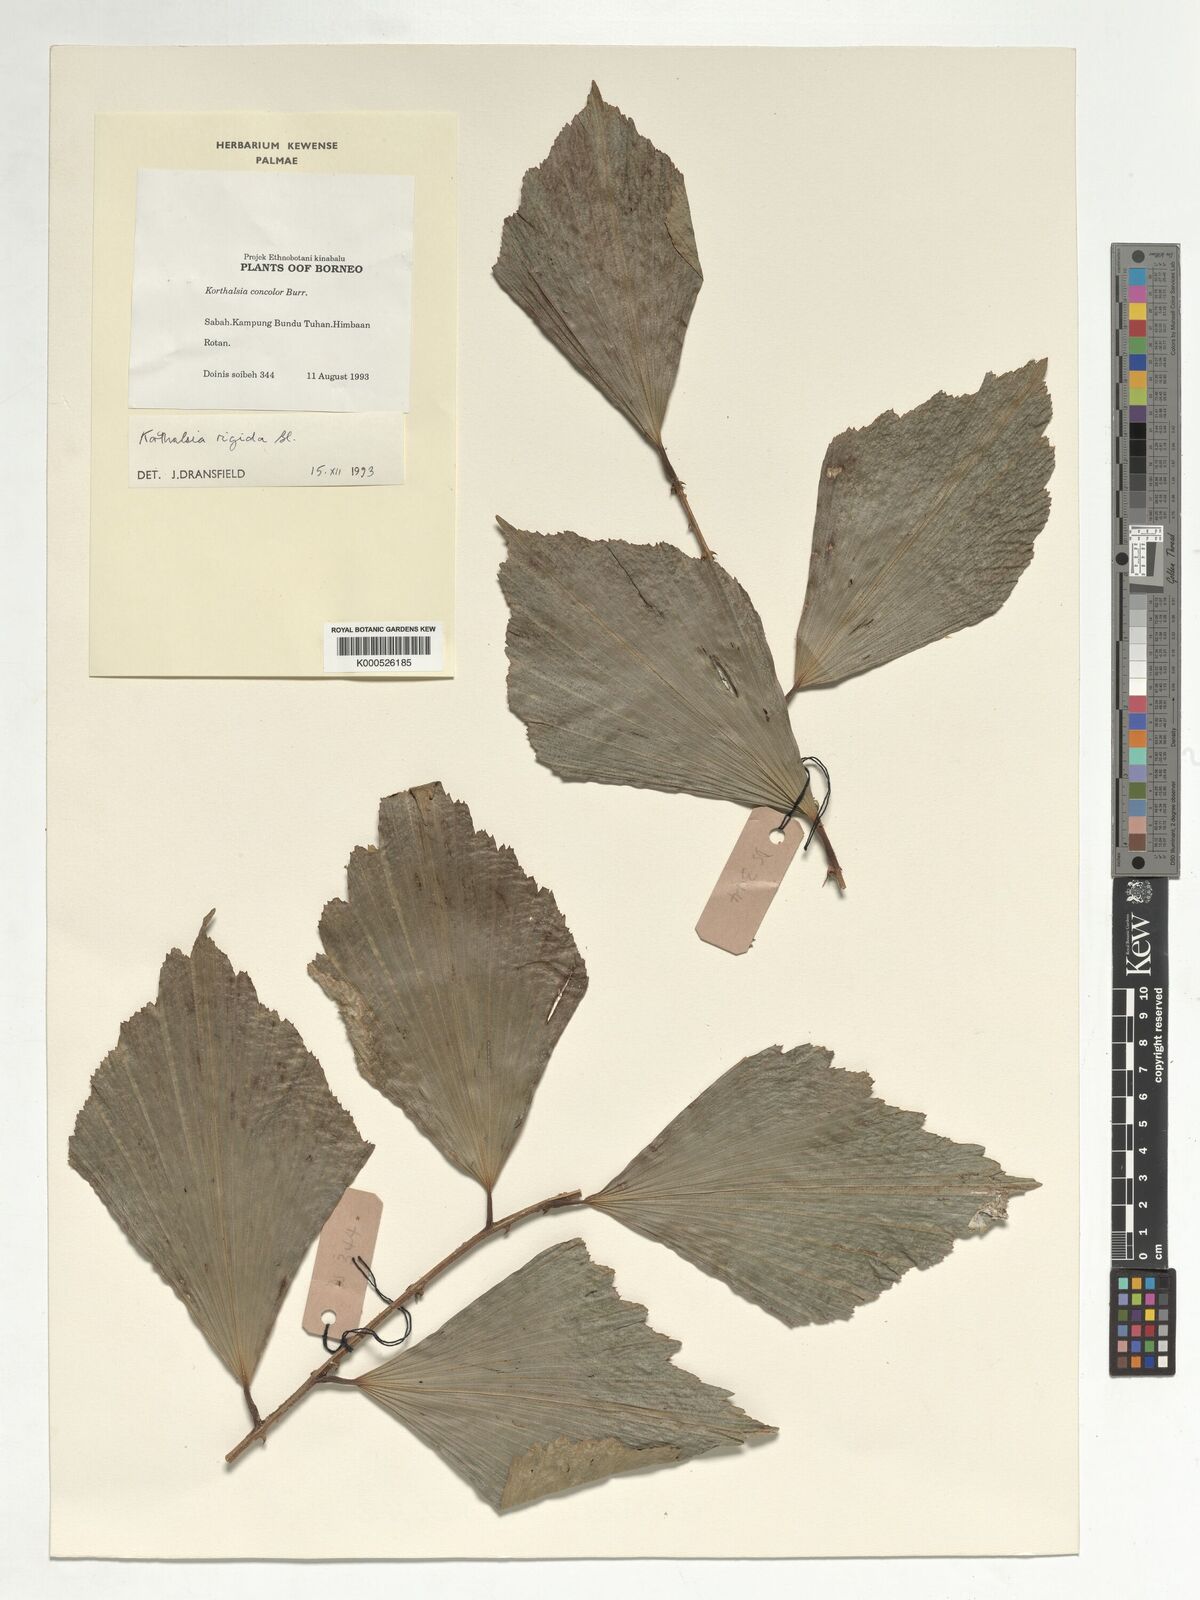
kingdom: Plantae
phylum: Tracheophyta
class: Liliopsida
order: Arecales
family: Arecaceae
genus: Korthalsia
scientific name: Korthalsia rigida
